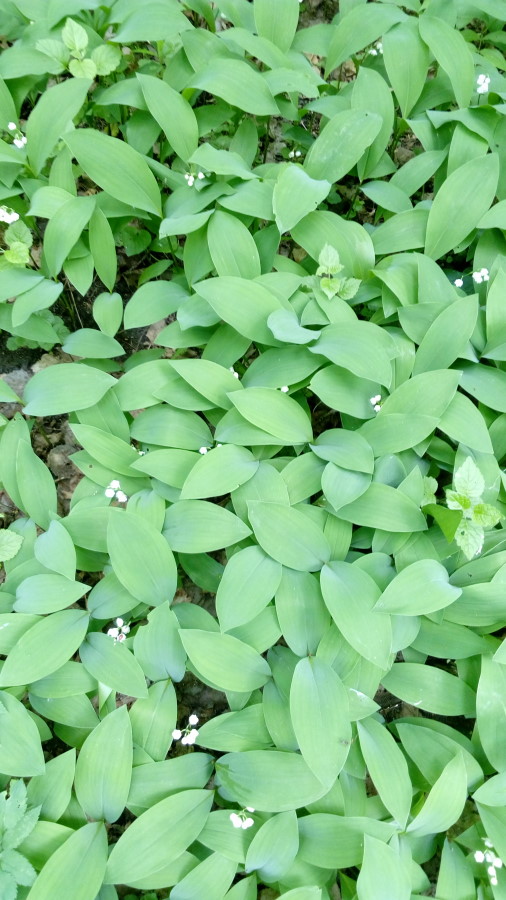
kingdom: Plantae
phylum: Tracheophyta
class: Liliopsida
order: Asparagales
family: Asparagaceae
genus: Convallaria
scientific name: Convallaria majalis
